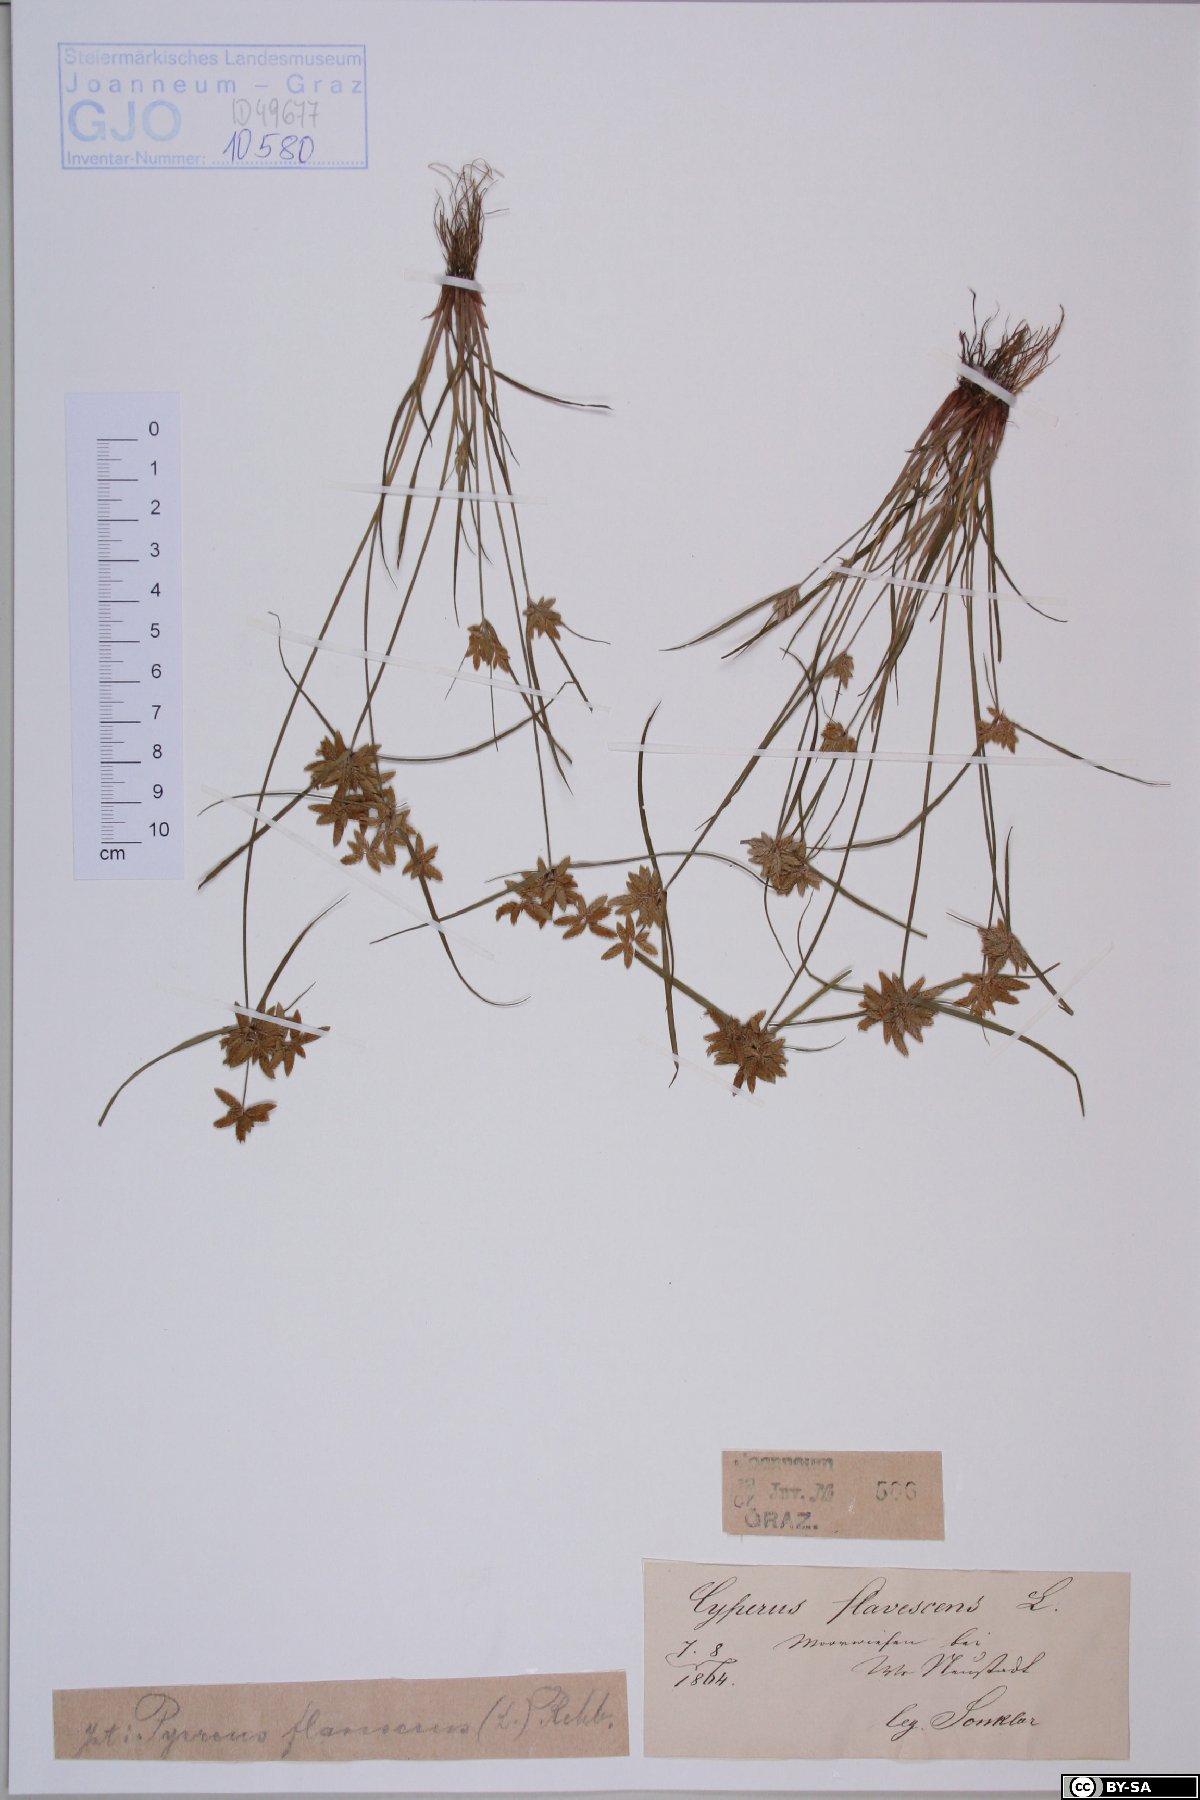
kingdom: Plantae
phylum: Tracheophyta
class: Liliopsida
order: Poales
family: Cyperaceae
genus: Cyperus
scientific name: Cyperus flavescens
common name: Yellow galingale
